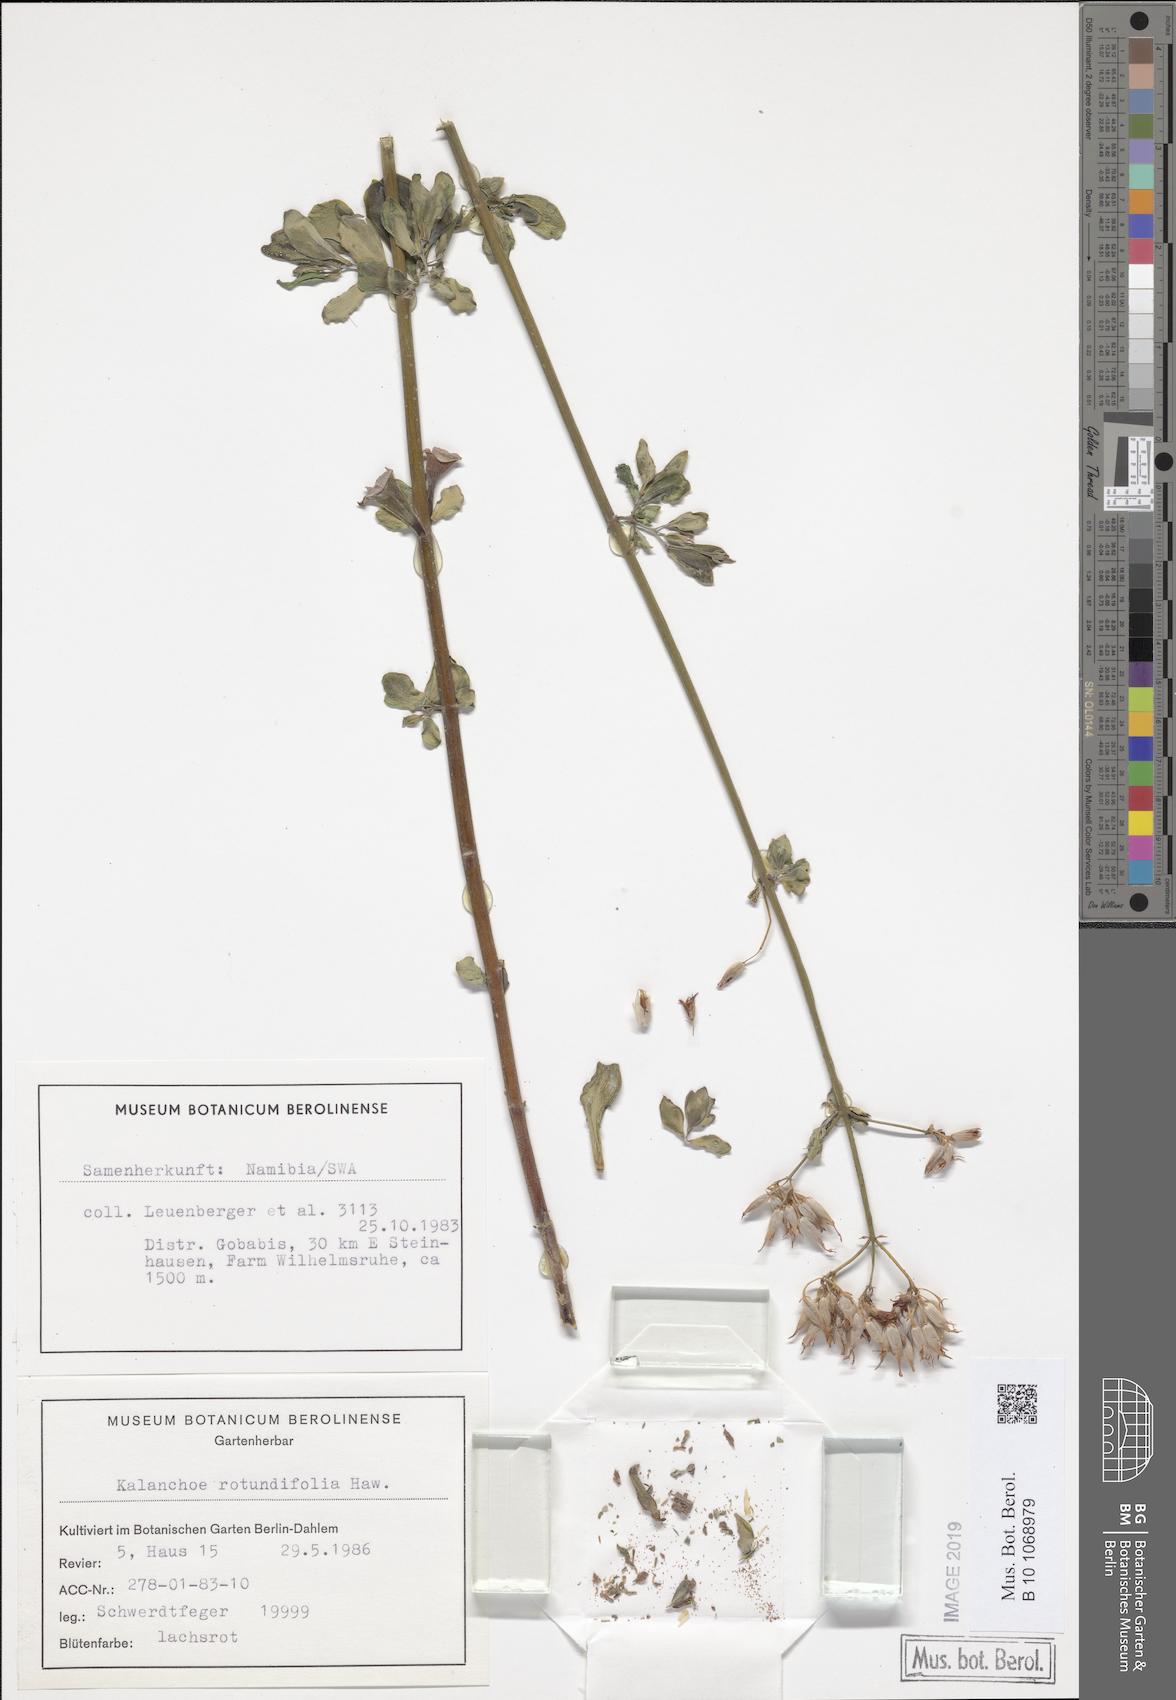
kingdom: Plantae
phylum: Tracheophyta
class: Magnoliopsida
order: Saxifragales
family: Crassulaceae
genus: Kalanchoe
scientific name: Kalanchoe rotundifolia
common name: Common kalanchoe
